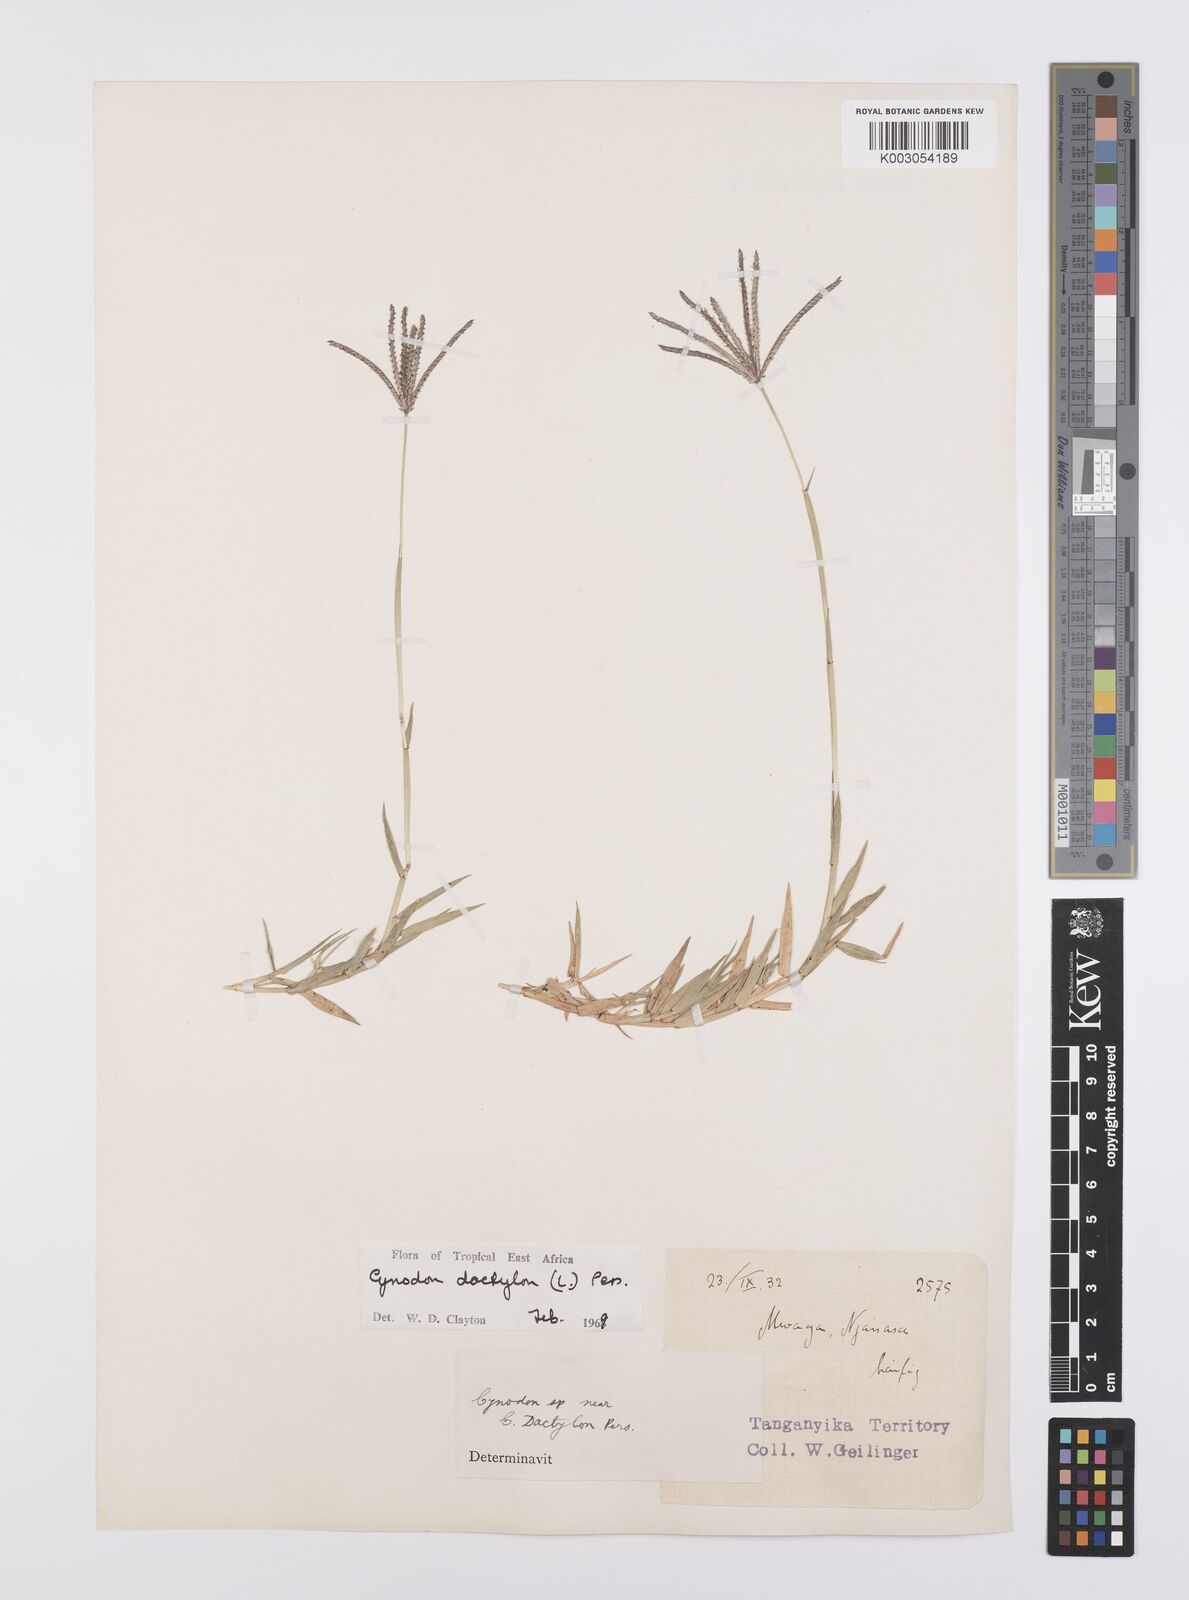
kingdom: Plantae
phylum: Tracheophyta
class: Liliopsida
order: Poales
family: Poaceae
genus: Cynodon
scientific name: Cynodon dactylon
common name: Bermuda grass
